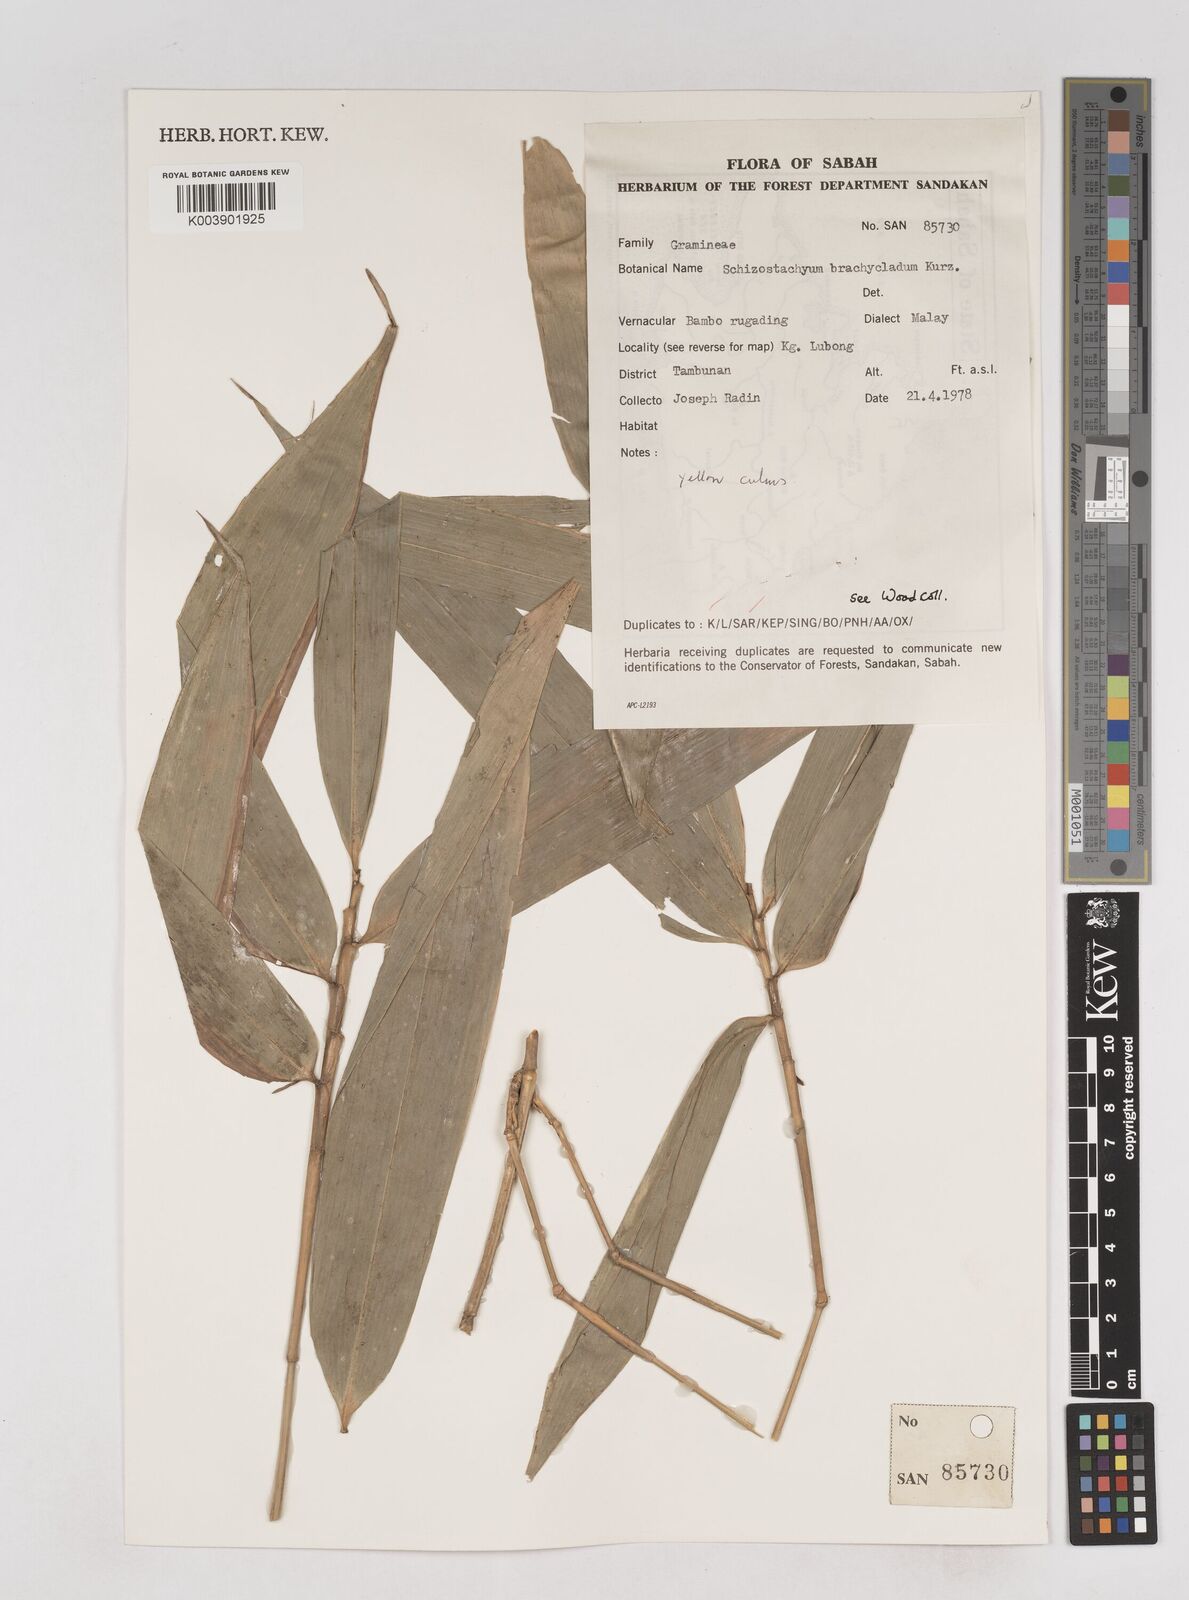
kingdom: Plantae
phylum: Tracheophyta
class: Liliopsida
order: Poales
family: Poaceae
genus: Schizostachyum
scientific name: Schizostachyum brachycladum
